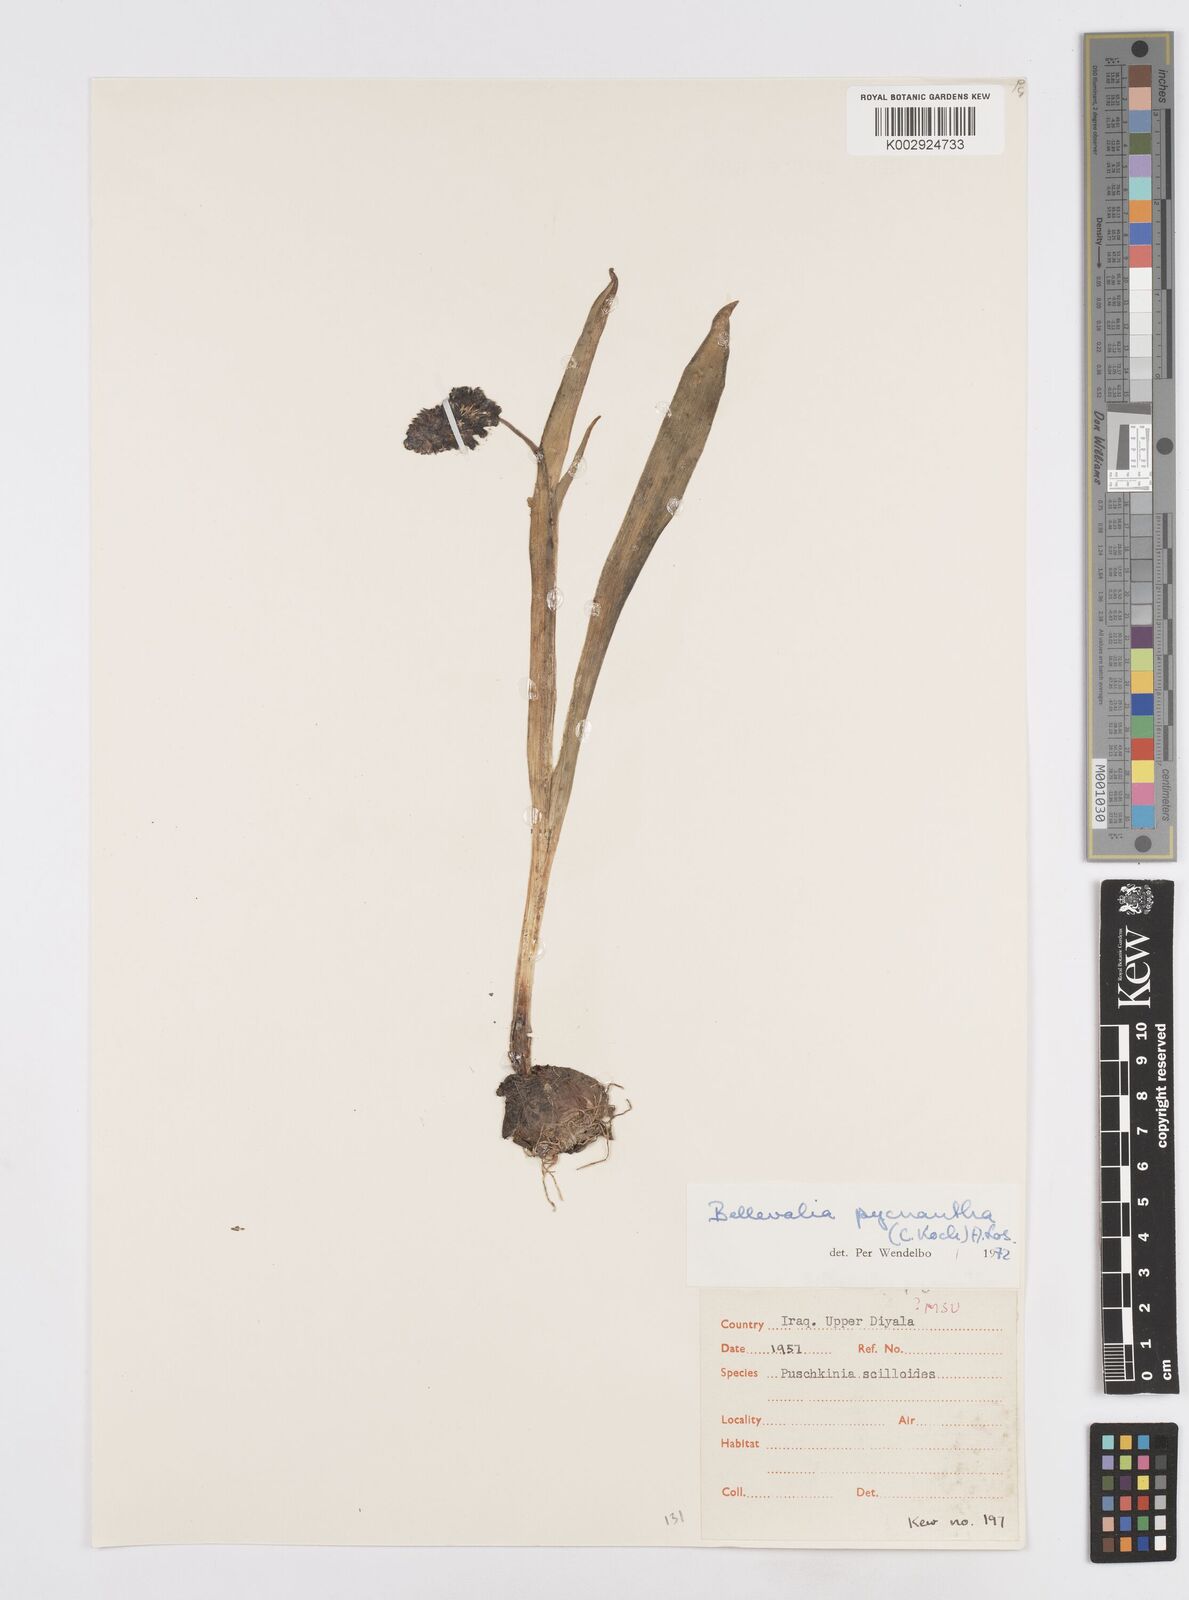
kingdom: Plantae
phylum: Tracheophyta
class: Liliopsida
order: Asparagales
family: Asparagaceae
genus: Bellevalia
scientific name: Bellevalia paradoxa
